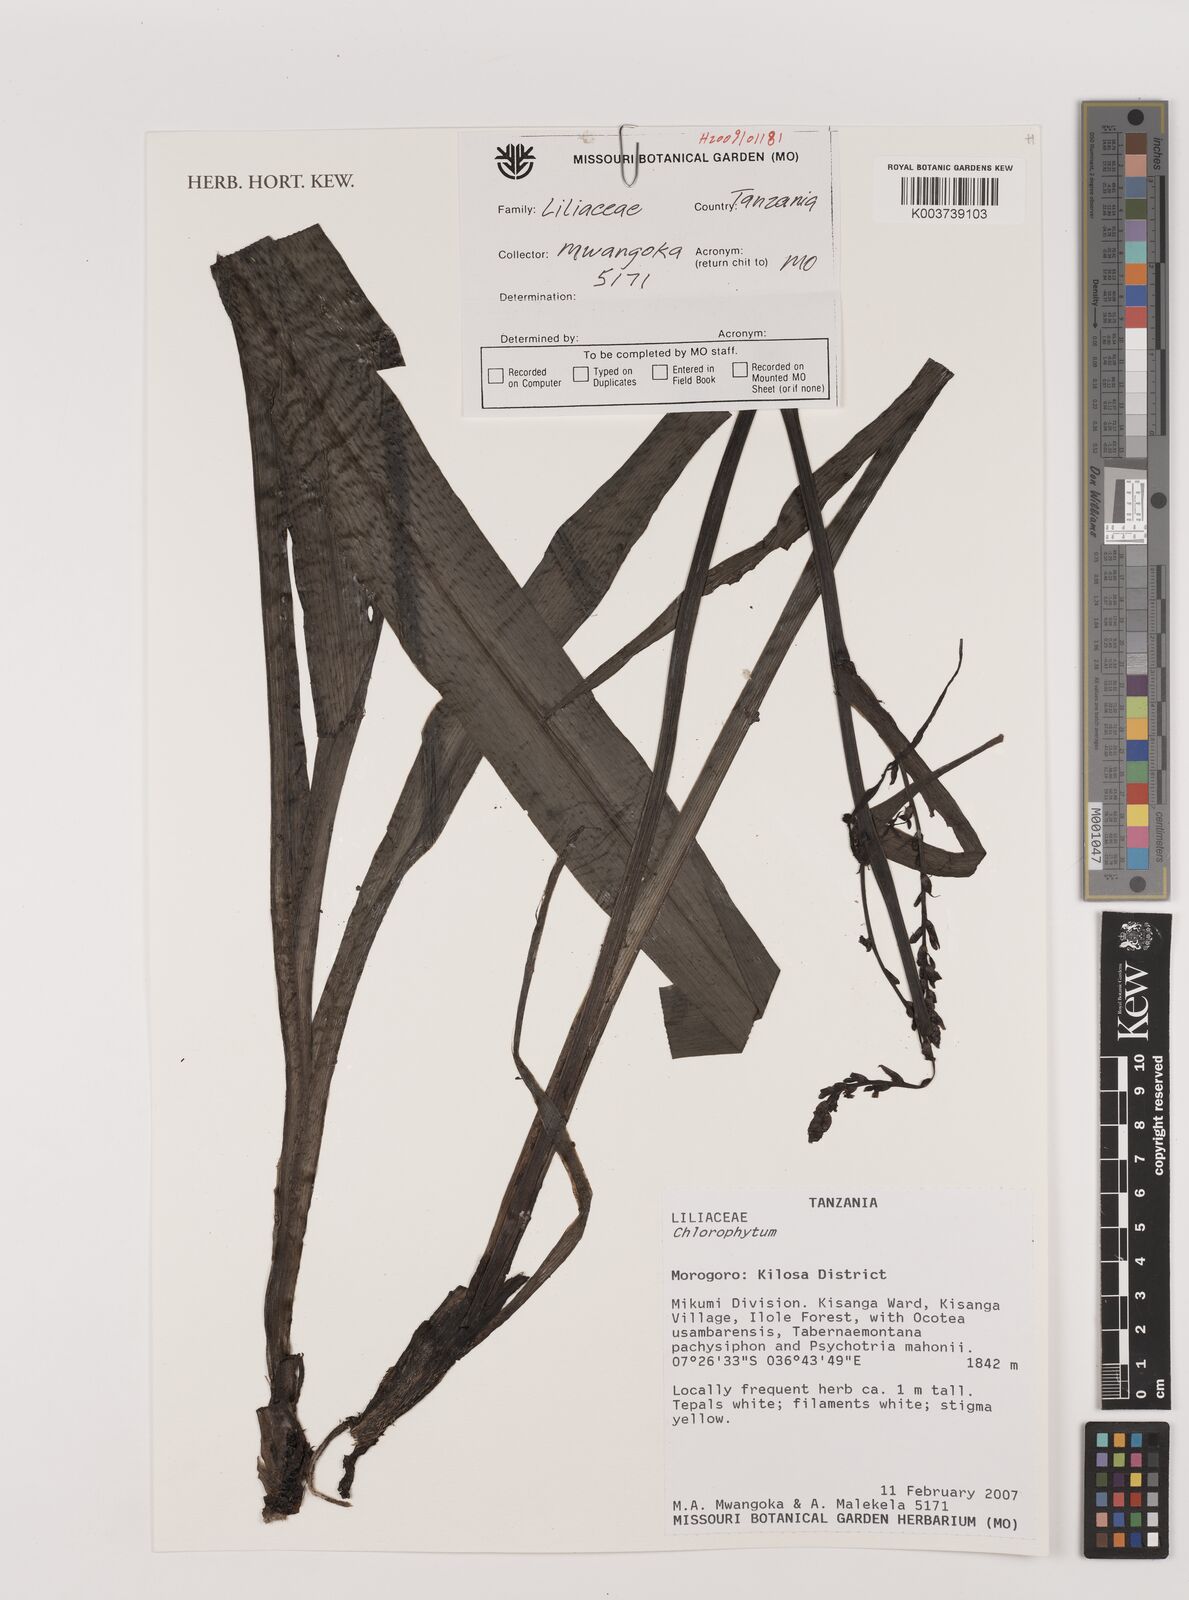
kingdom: Plantae
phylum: Tracheophyta
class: Liliopsida
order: Asparagales
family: Asparagaceae
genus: Chlorophytum
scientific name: Chlorophytum
